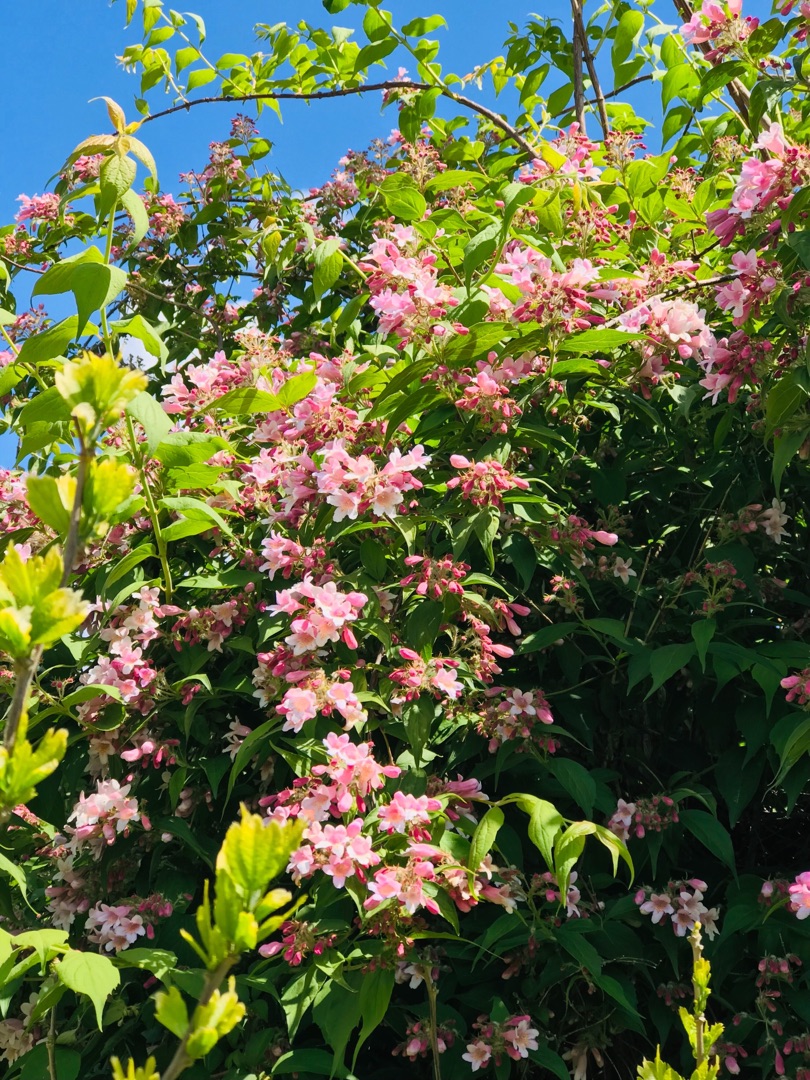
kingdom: Plantae
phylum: Tracheophyta
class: Magnoliopsida
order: Dipsacales
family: Caprifoliaceae
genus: Weigela
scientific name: Weigela florida
